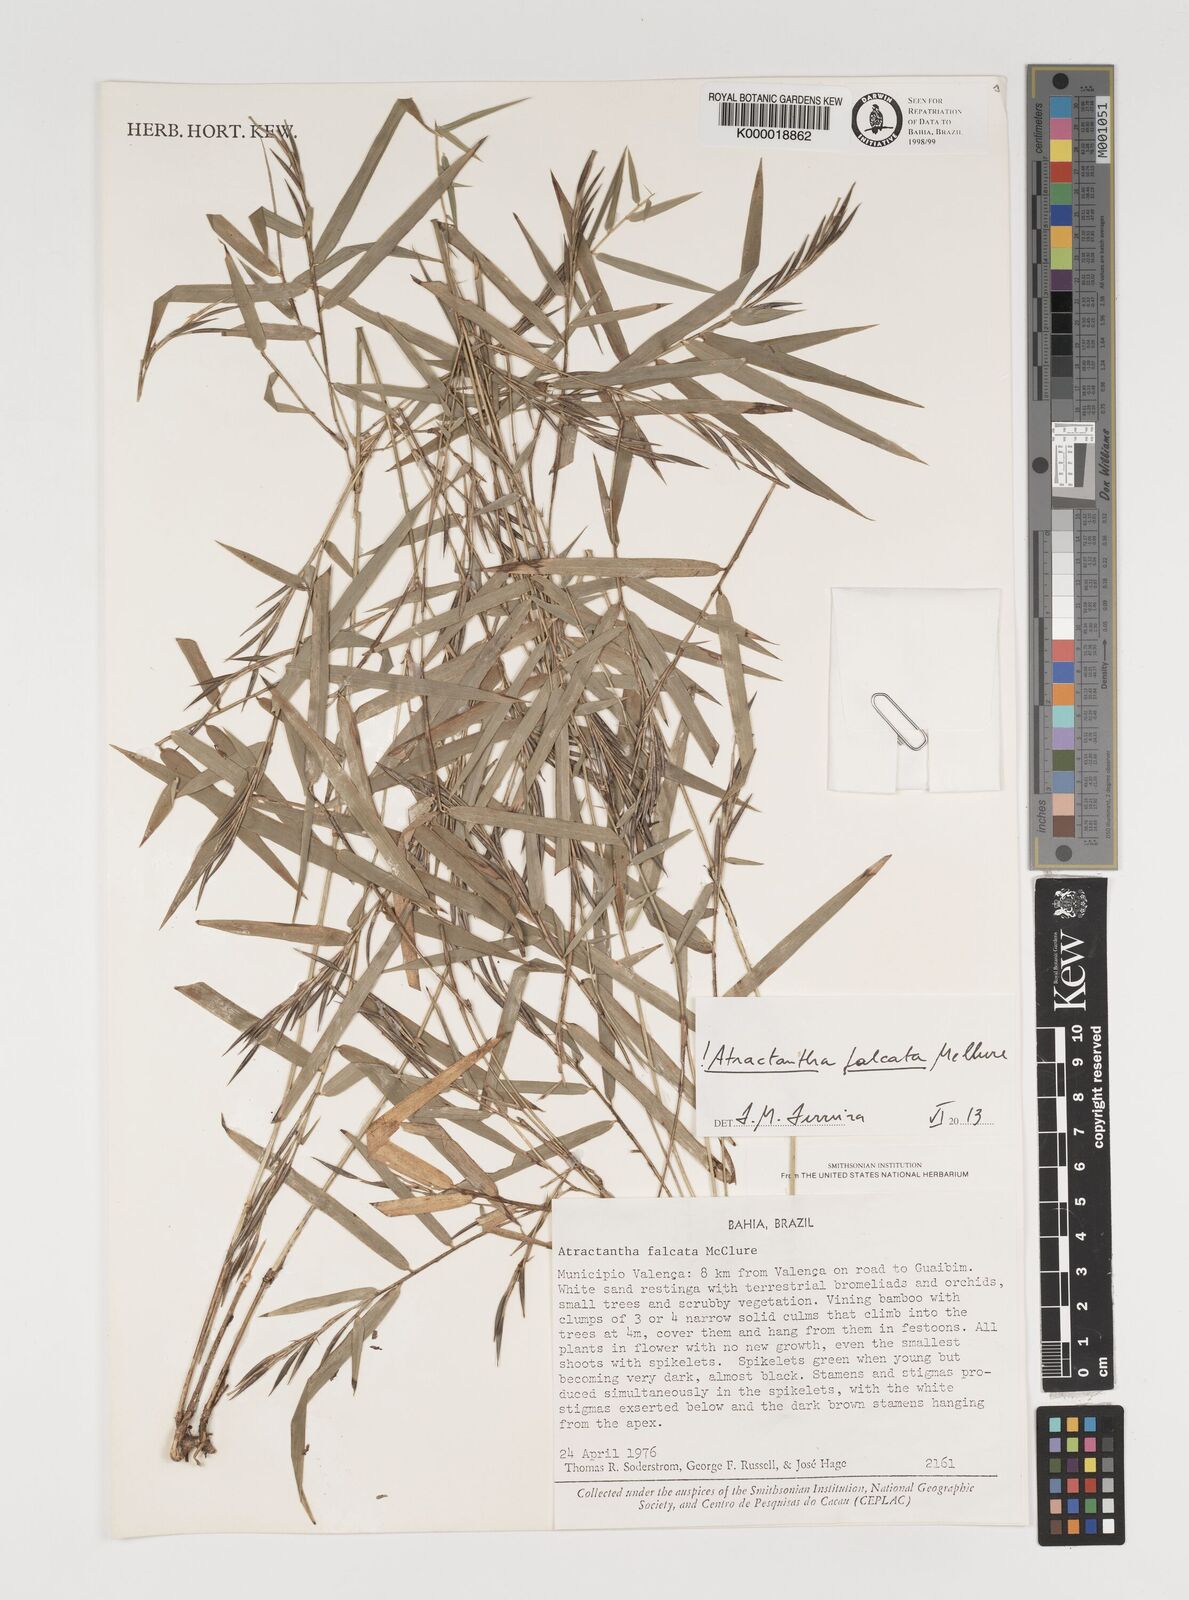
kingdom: Plantae
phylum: Tracheophyta
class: Liliopsida
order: Poales
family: Poaceae
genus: Atractantha
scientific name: Atractantha falcata
